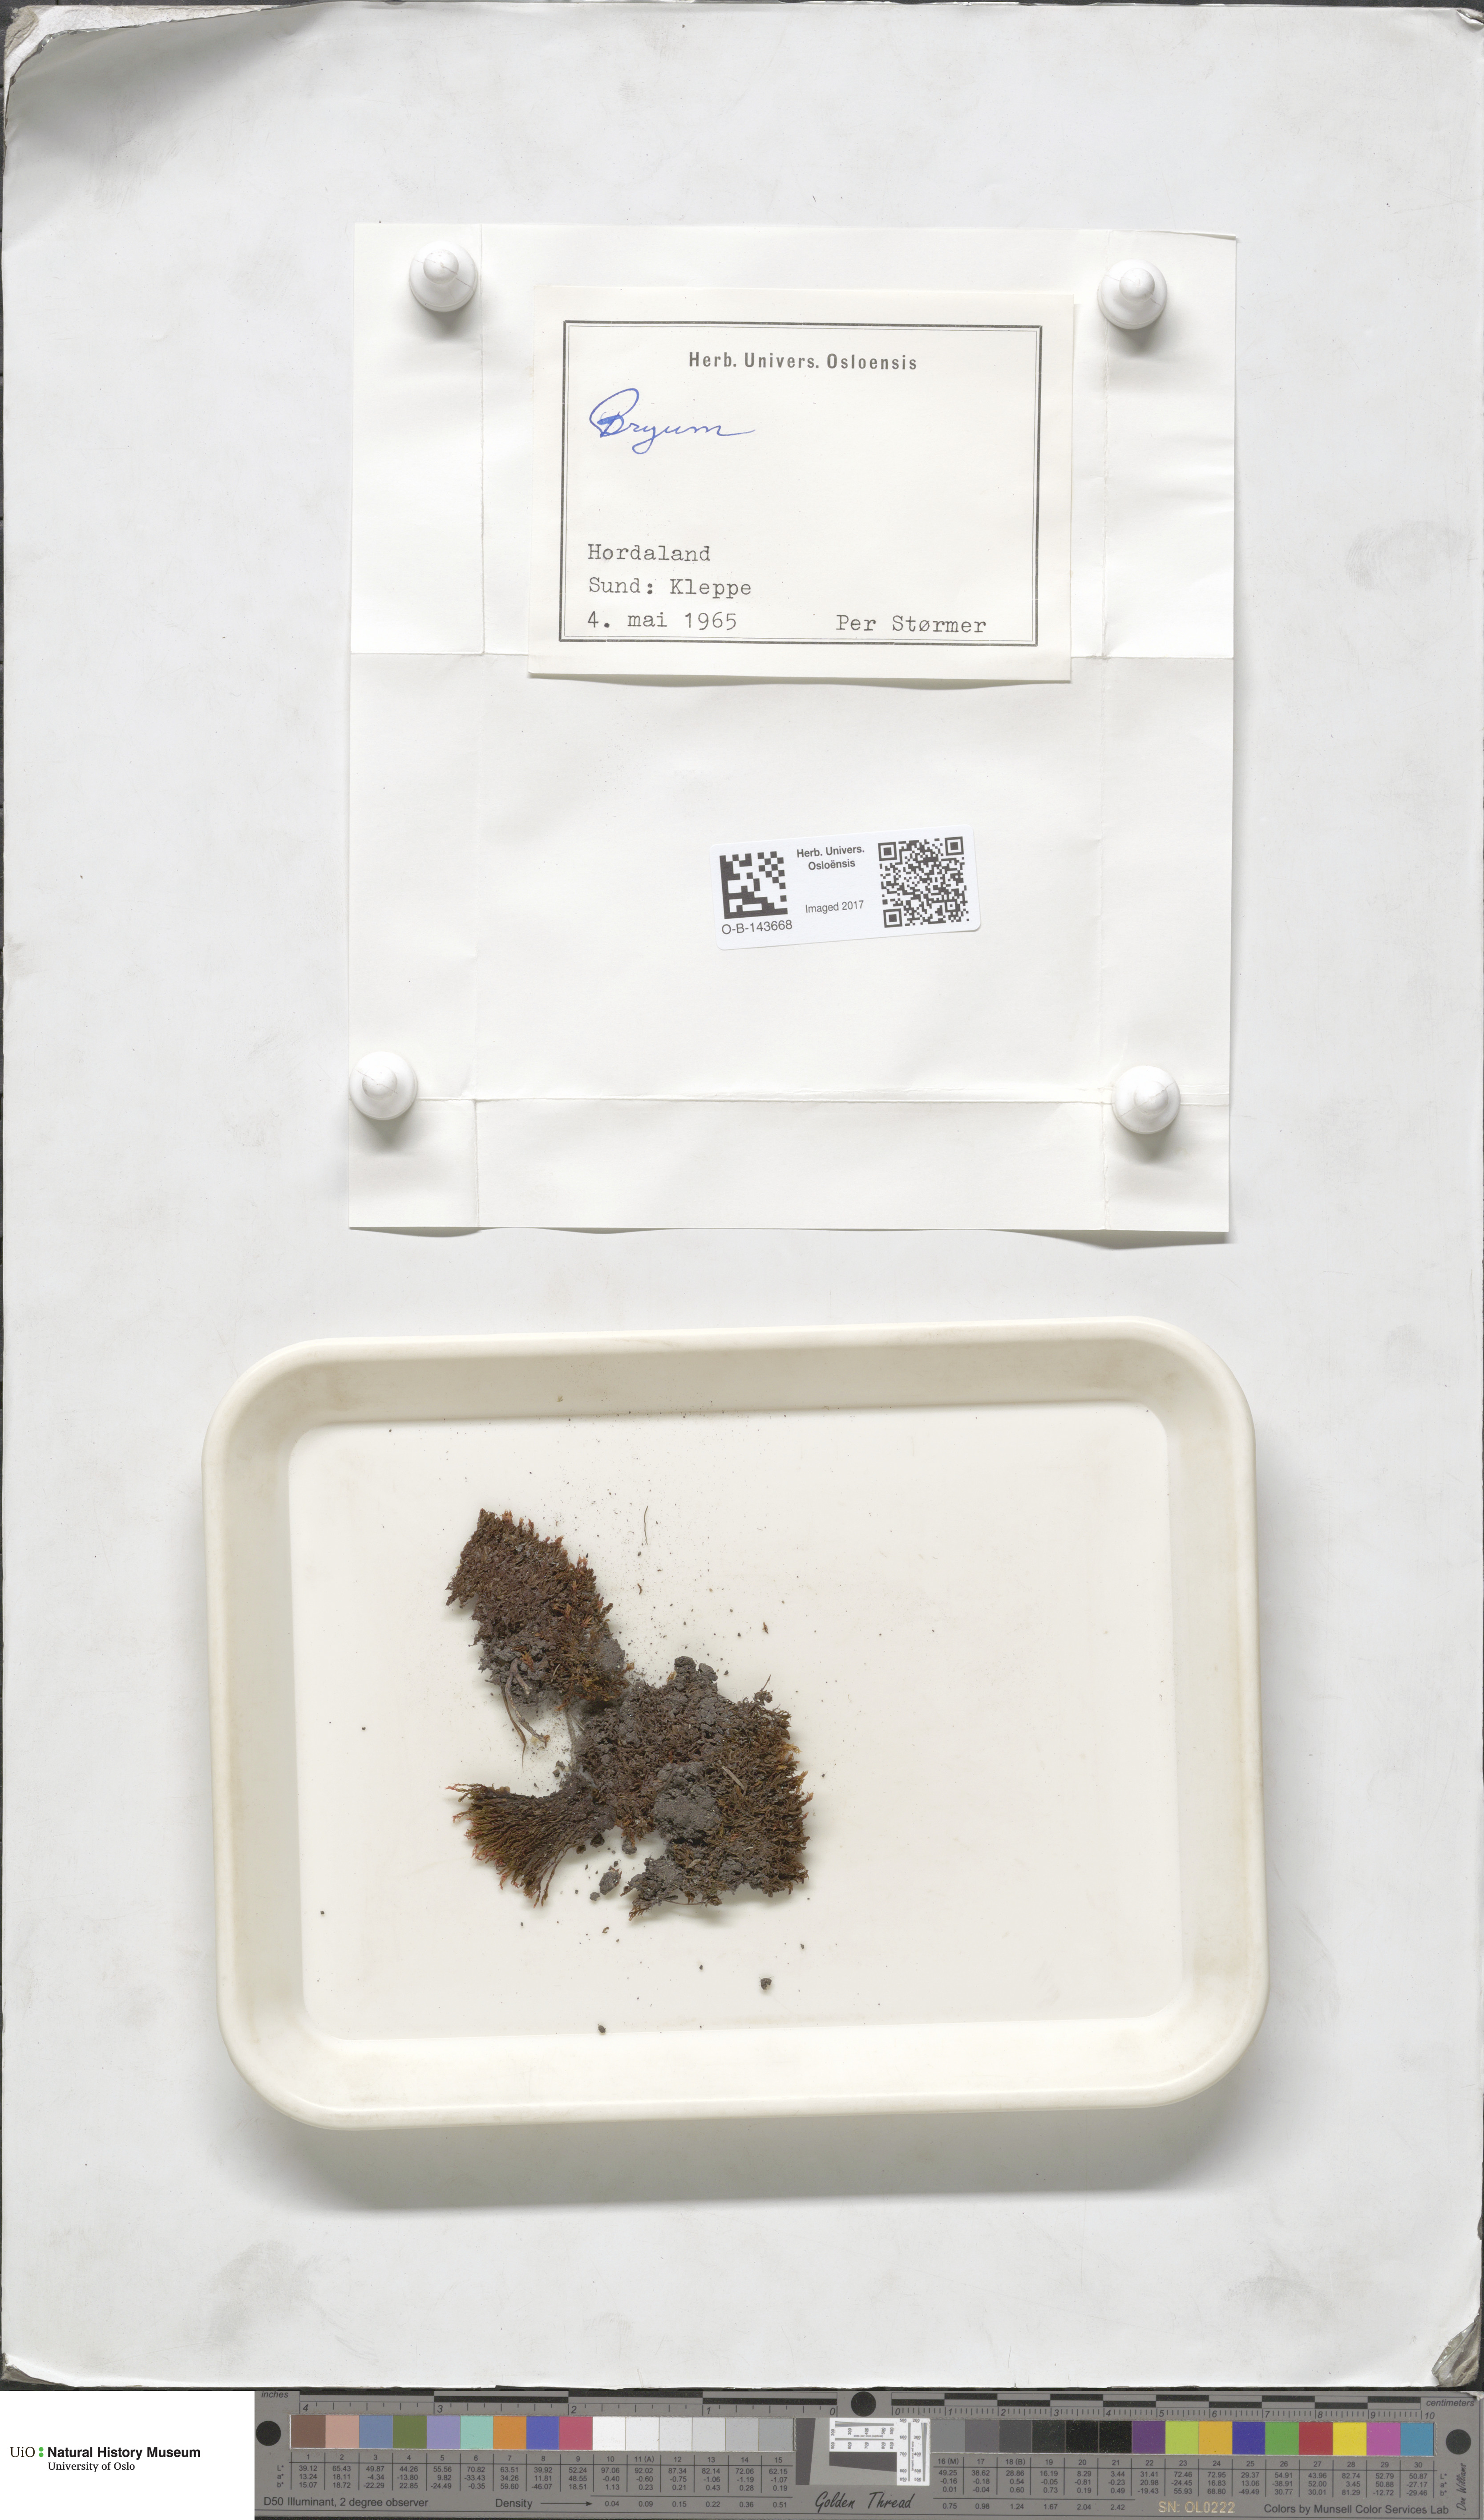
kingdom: Plantae
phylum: Bryophyta
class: Bryopsida
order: Bryales
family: Bryaceae
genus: Bryum
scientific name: Bryum
